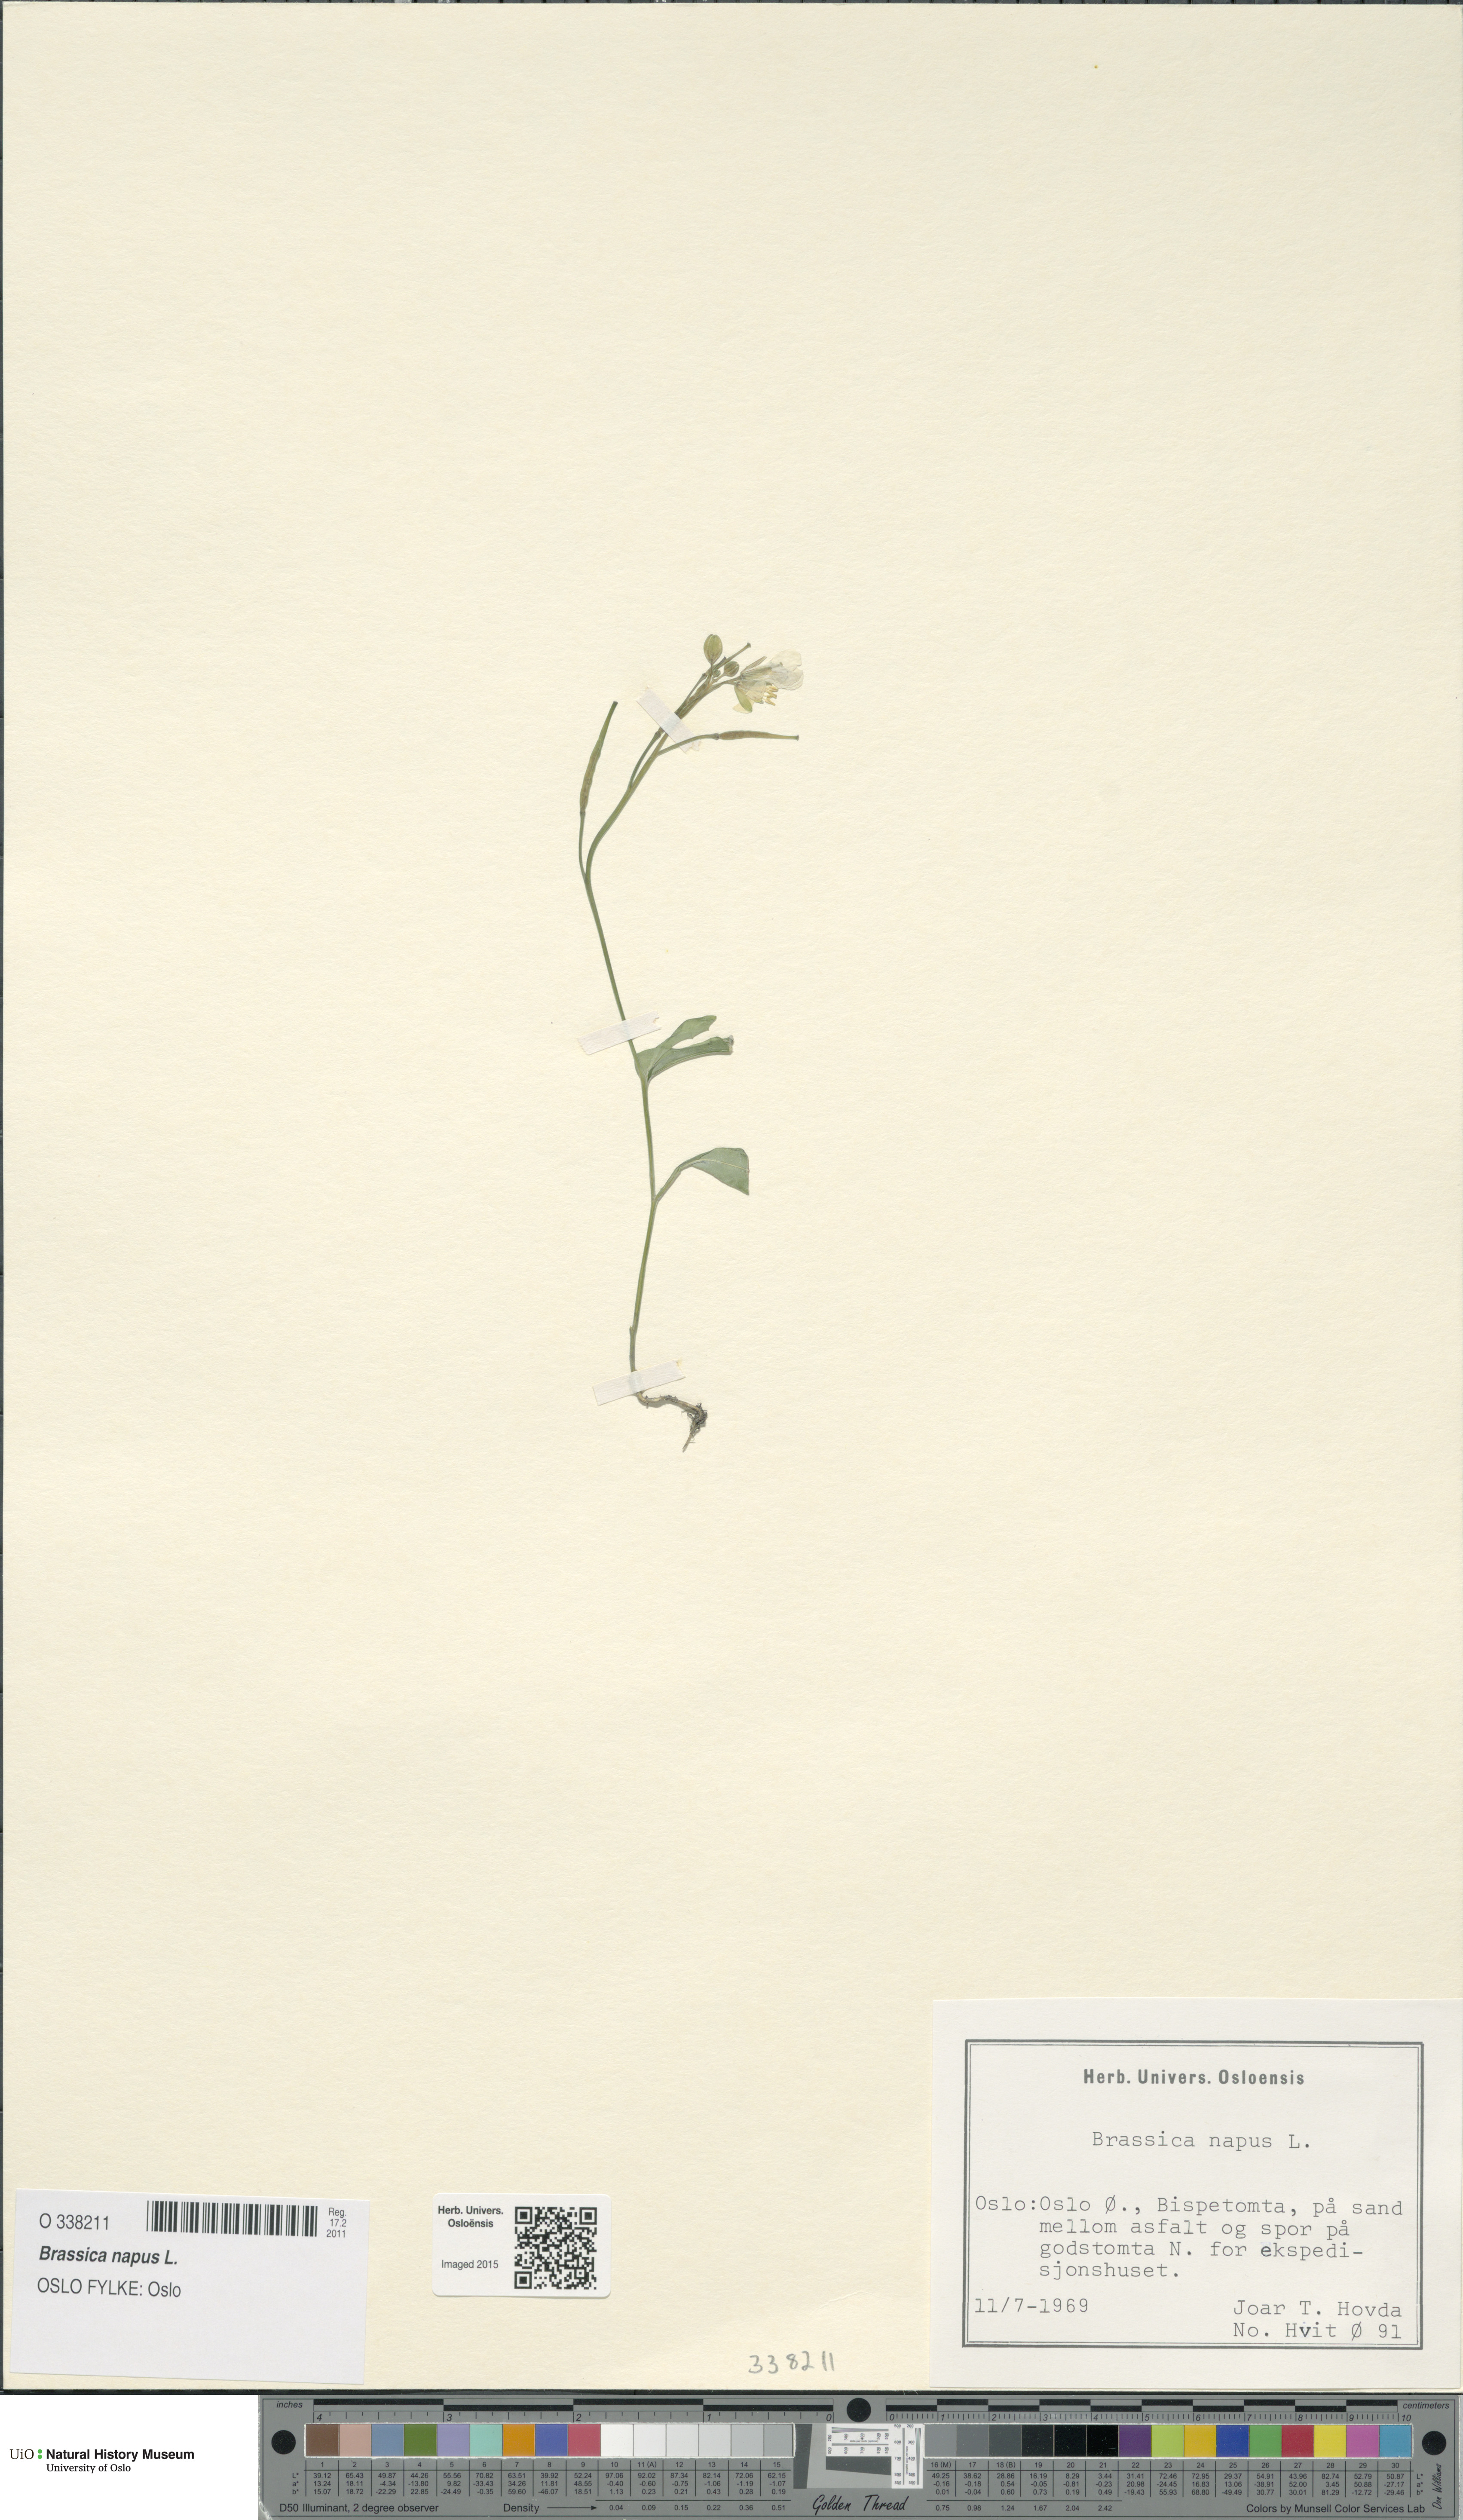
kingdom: Plantae
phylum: Tracheophyta
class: Magnoliopsida
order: Brassicales
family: Brassicaceae
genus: Brassica
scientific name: Brassica napus
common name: Rape
